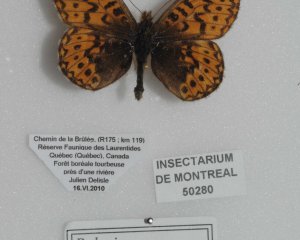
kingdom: Animalia
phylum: Arthropoda
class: Insecta
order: Lepidoptera
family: Nymphalidae
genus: Boloria
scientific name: Boloria freija
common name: Freija Fritillary
